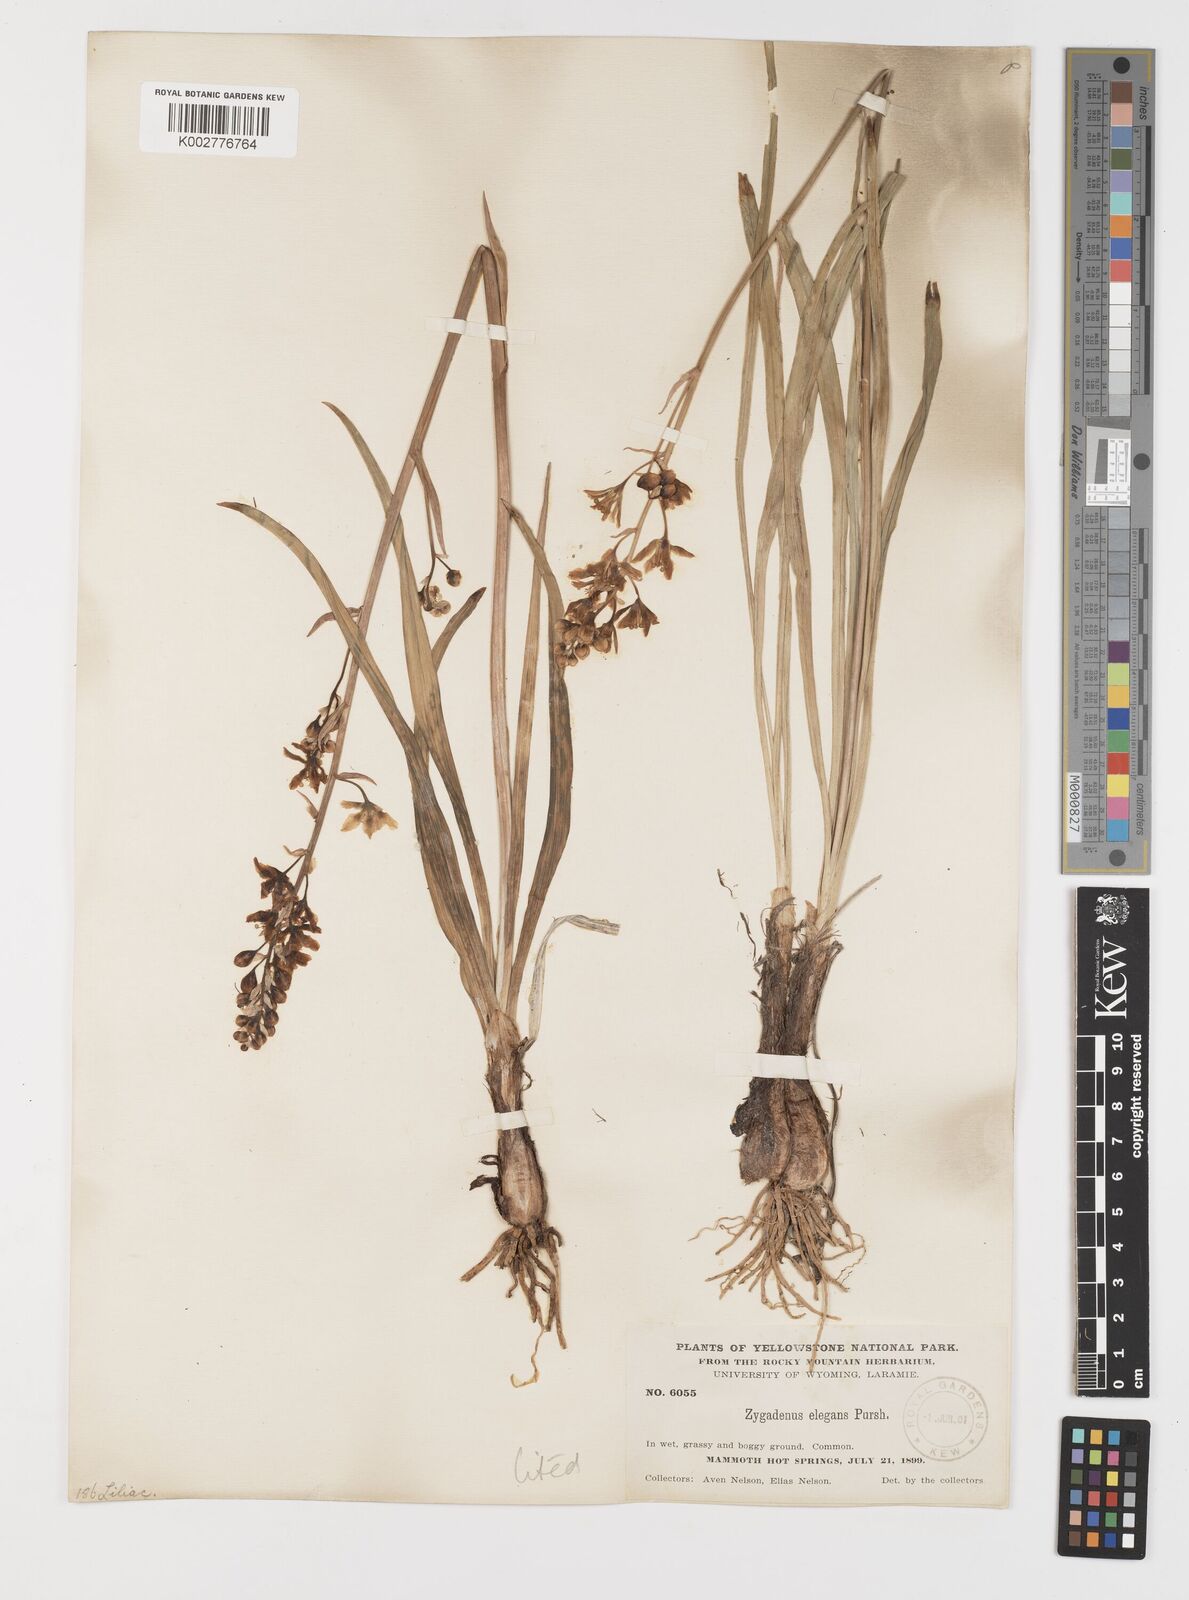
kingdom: Plantae
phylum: Tracheophyta
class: Liliopsida
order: Liliales
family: Melanthiaceae
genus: Anticlea
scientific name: Anticlea elegans
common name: Mountain death camas
